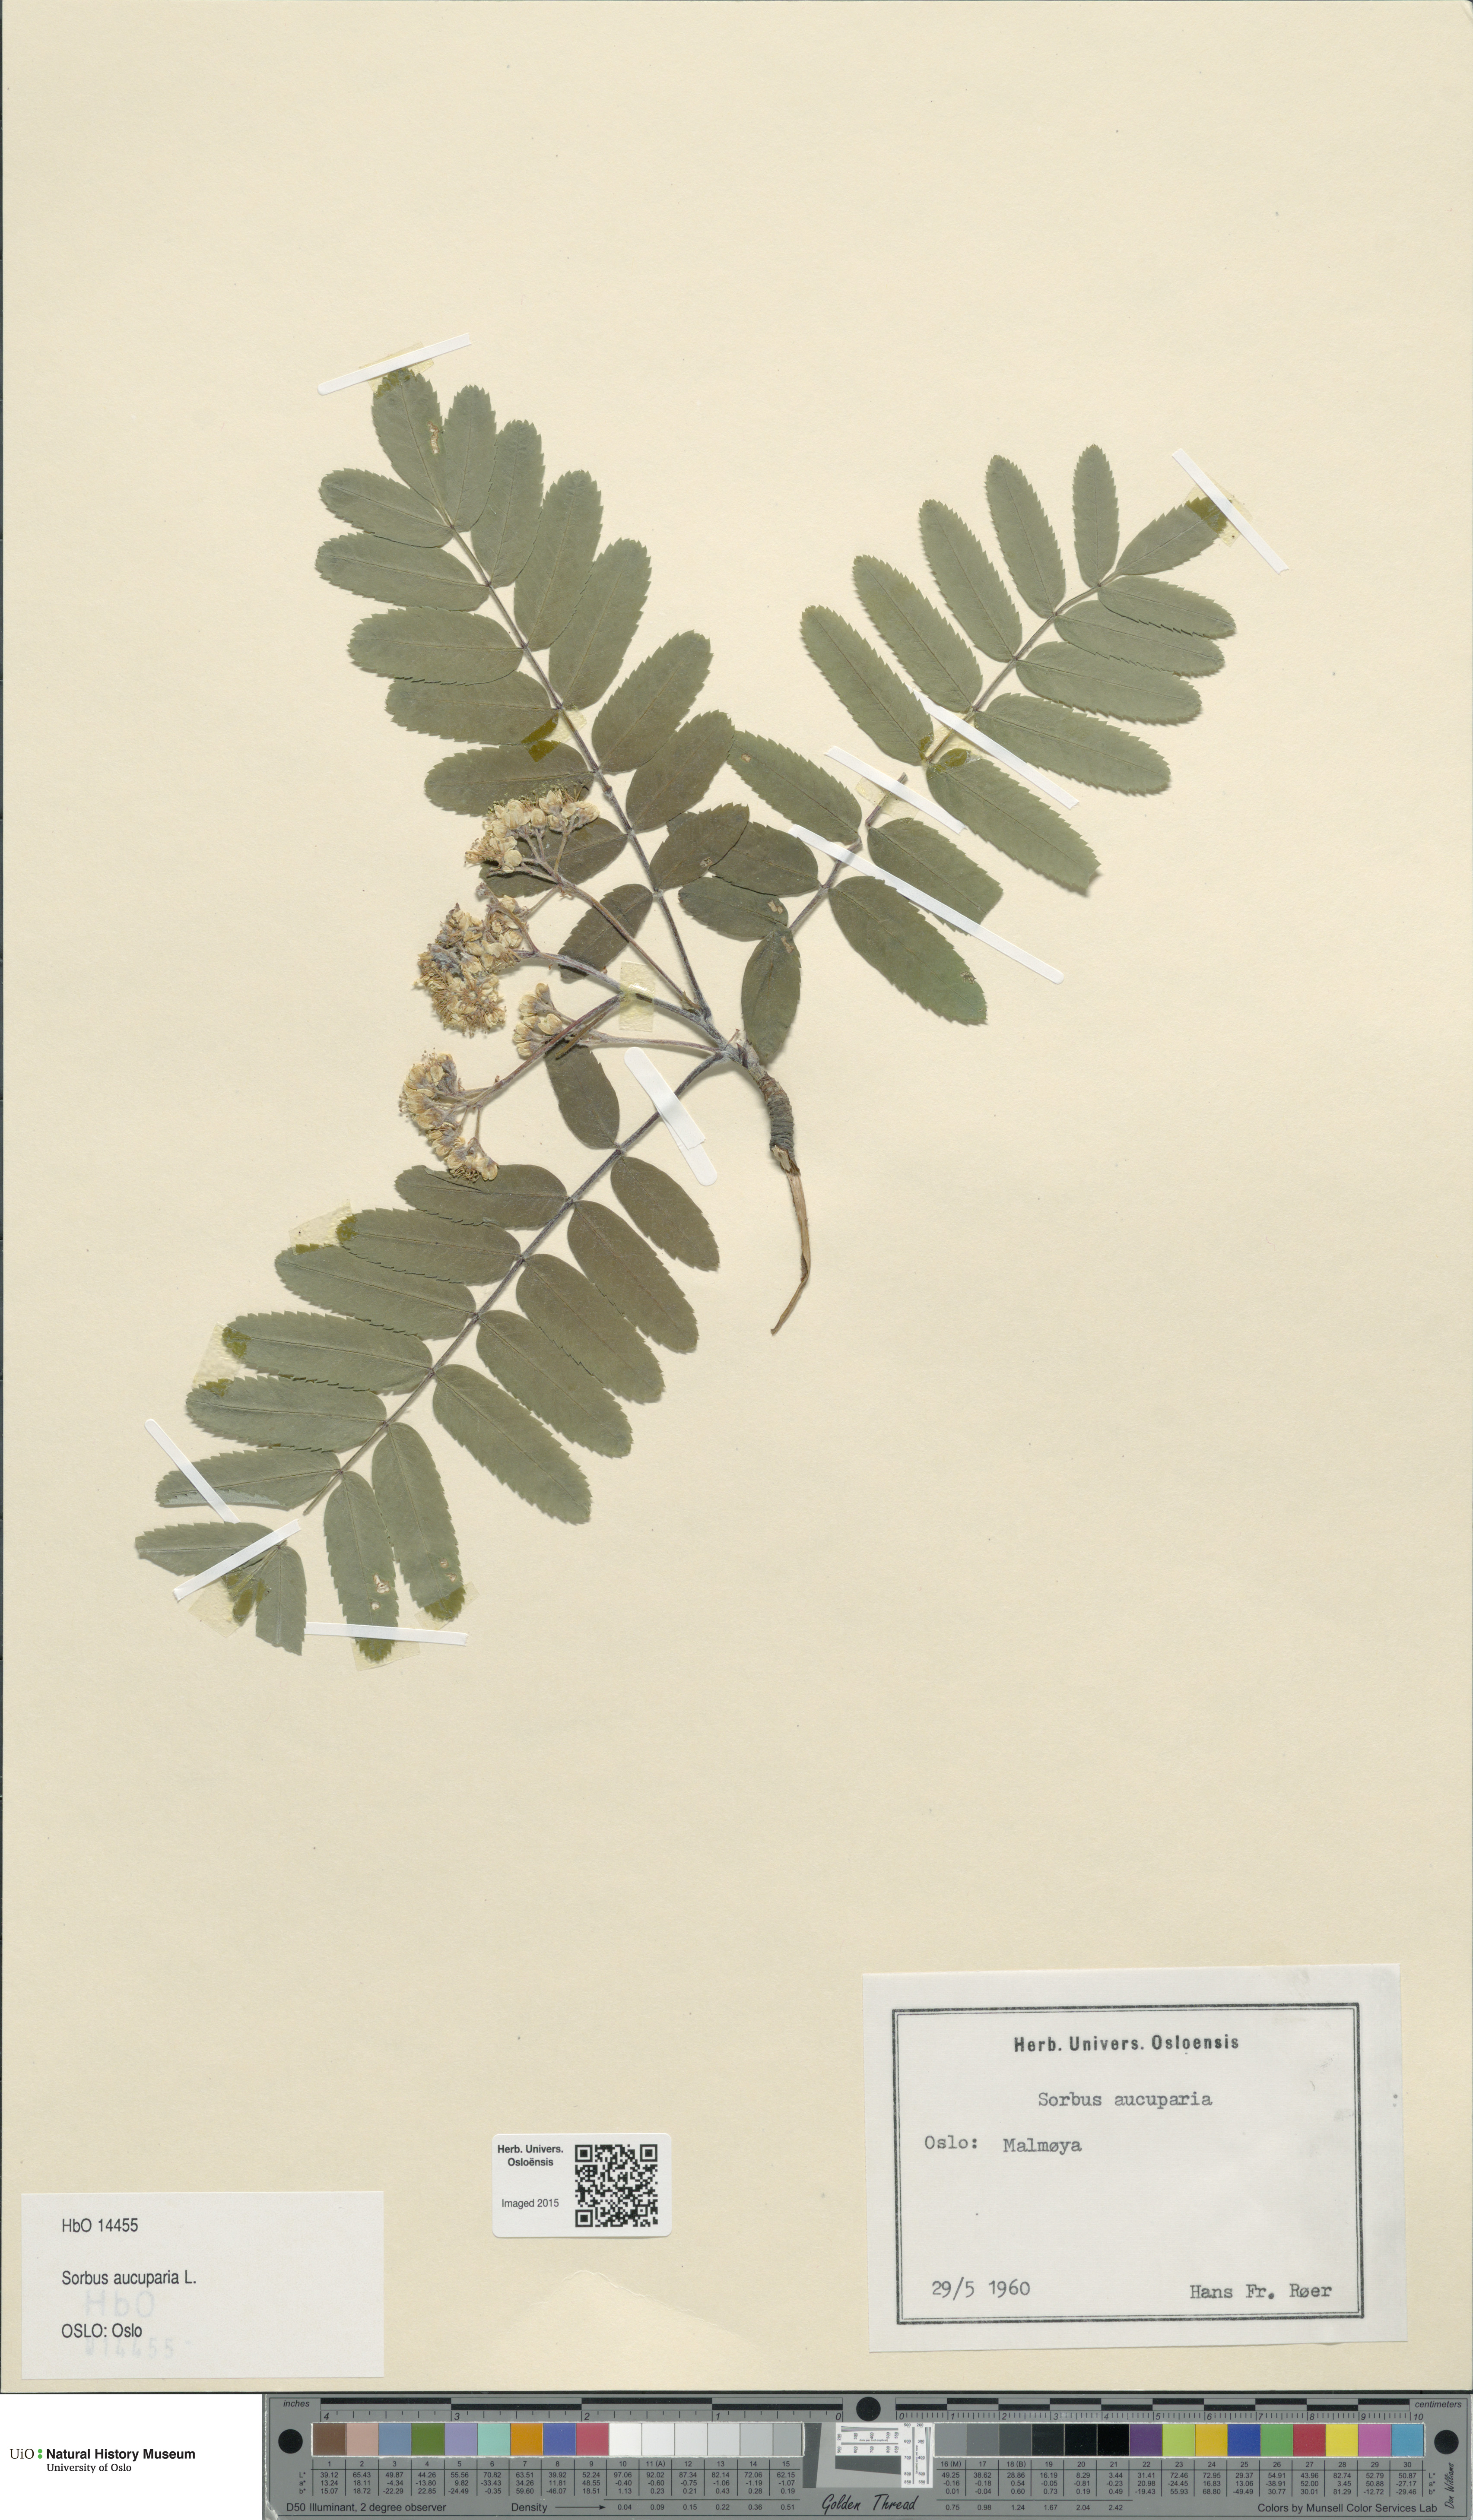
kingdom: Plantae
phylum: Tracheophyta
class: Magnoliopsida
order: Rosales
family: Rosaceae
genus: Sorbus
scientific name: Sorbus aucuparia
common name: Rowan
